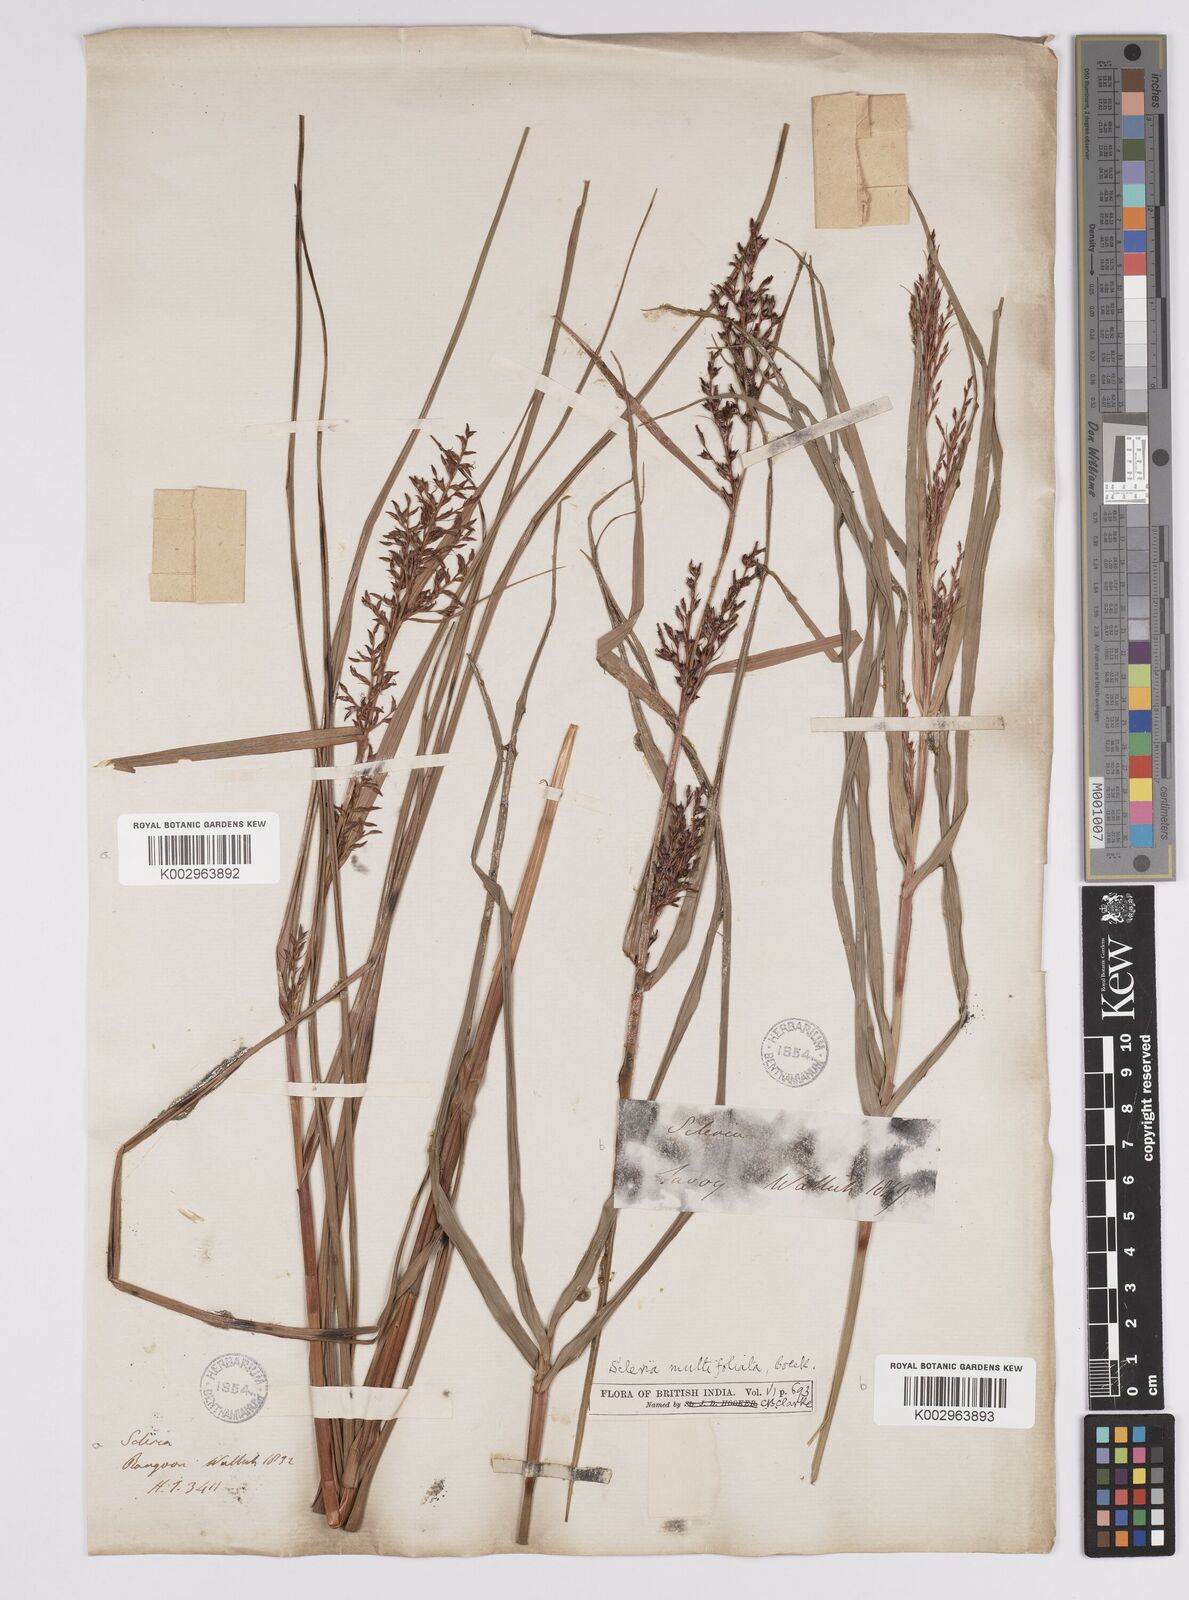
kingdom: Plantae
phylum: Tracheophyta
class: Liliopsida
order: Poales
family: Cyperaceae
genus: Scleria
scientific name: Scleria purpurascens
